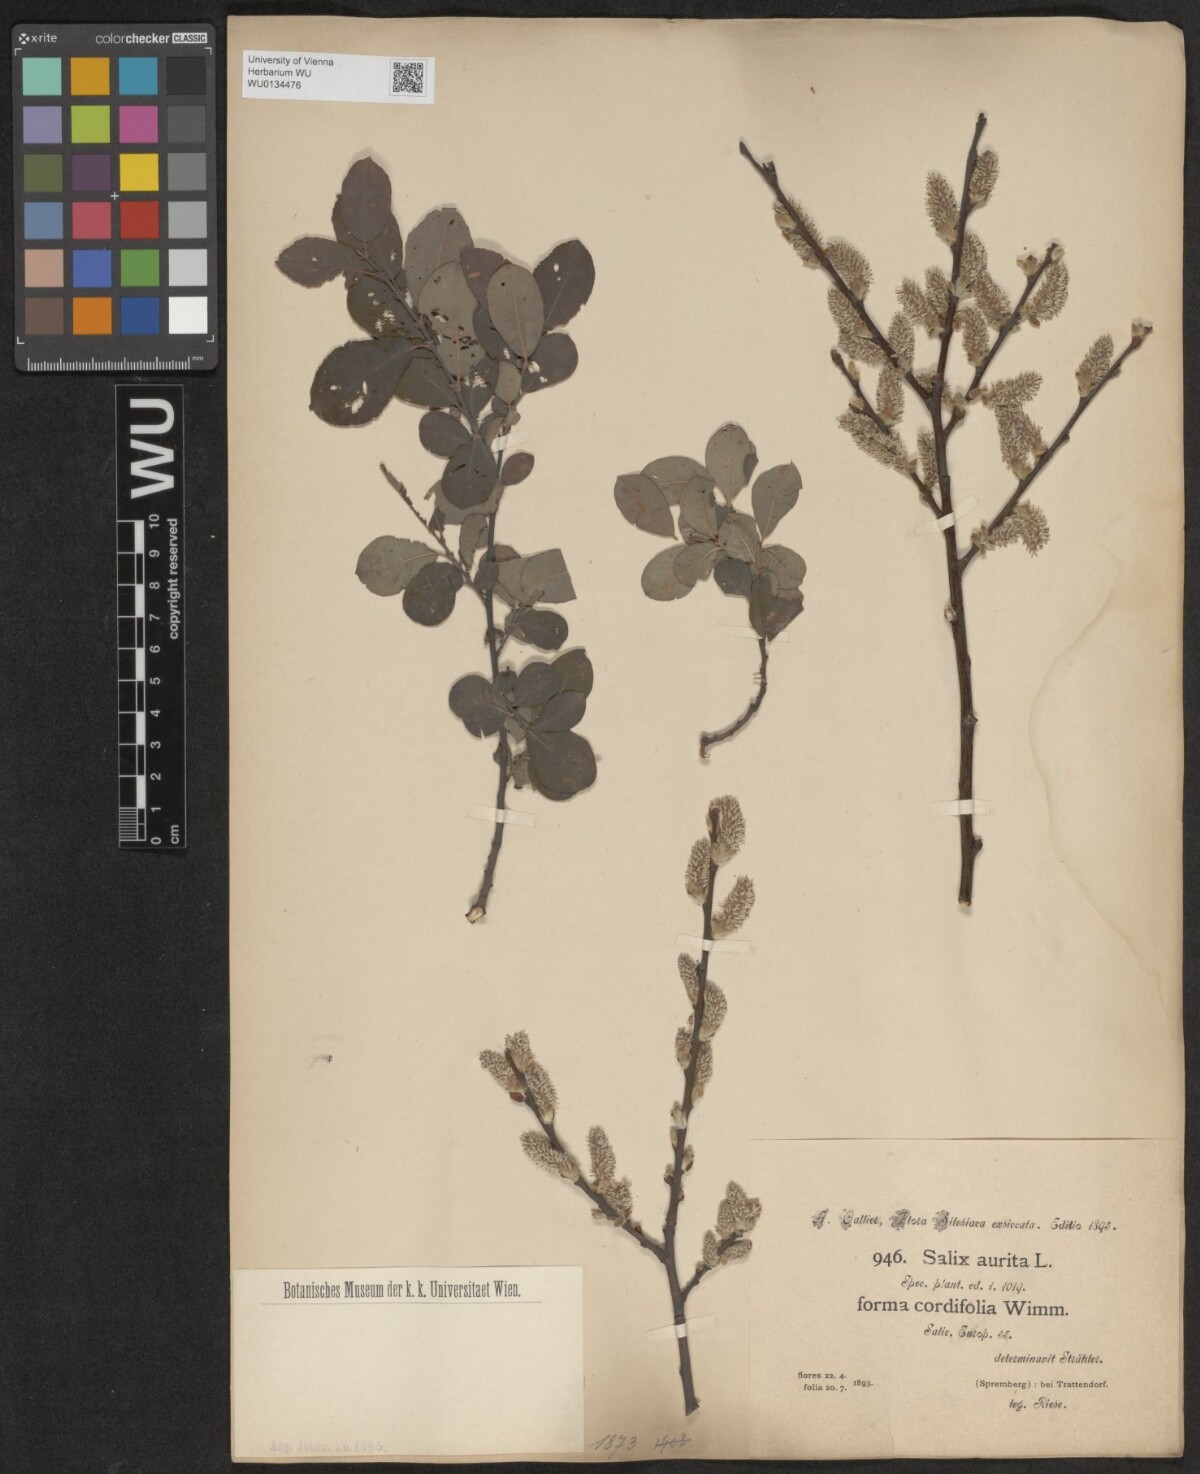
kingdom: Plantae
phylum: Tracheophyta
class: Magnoliopsida
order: Malpighiales
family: Salicaceae
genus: Salix
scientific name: Salix aurita
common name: Eared willow
